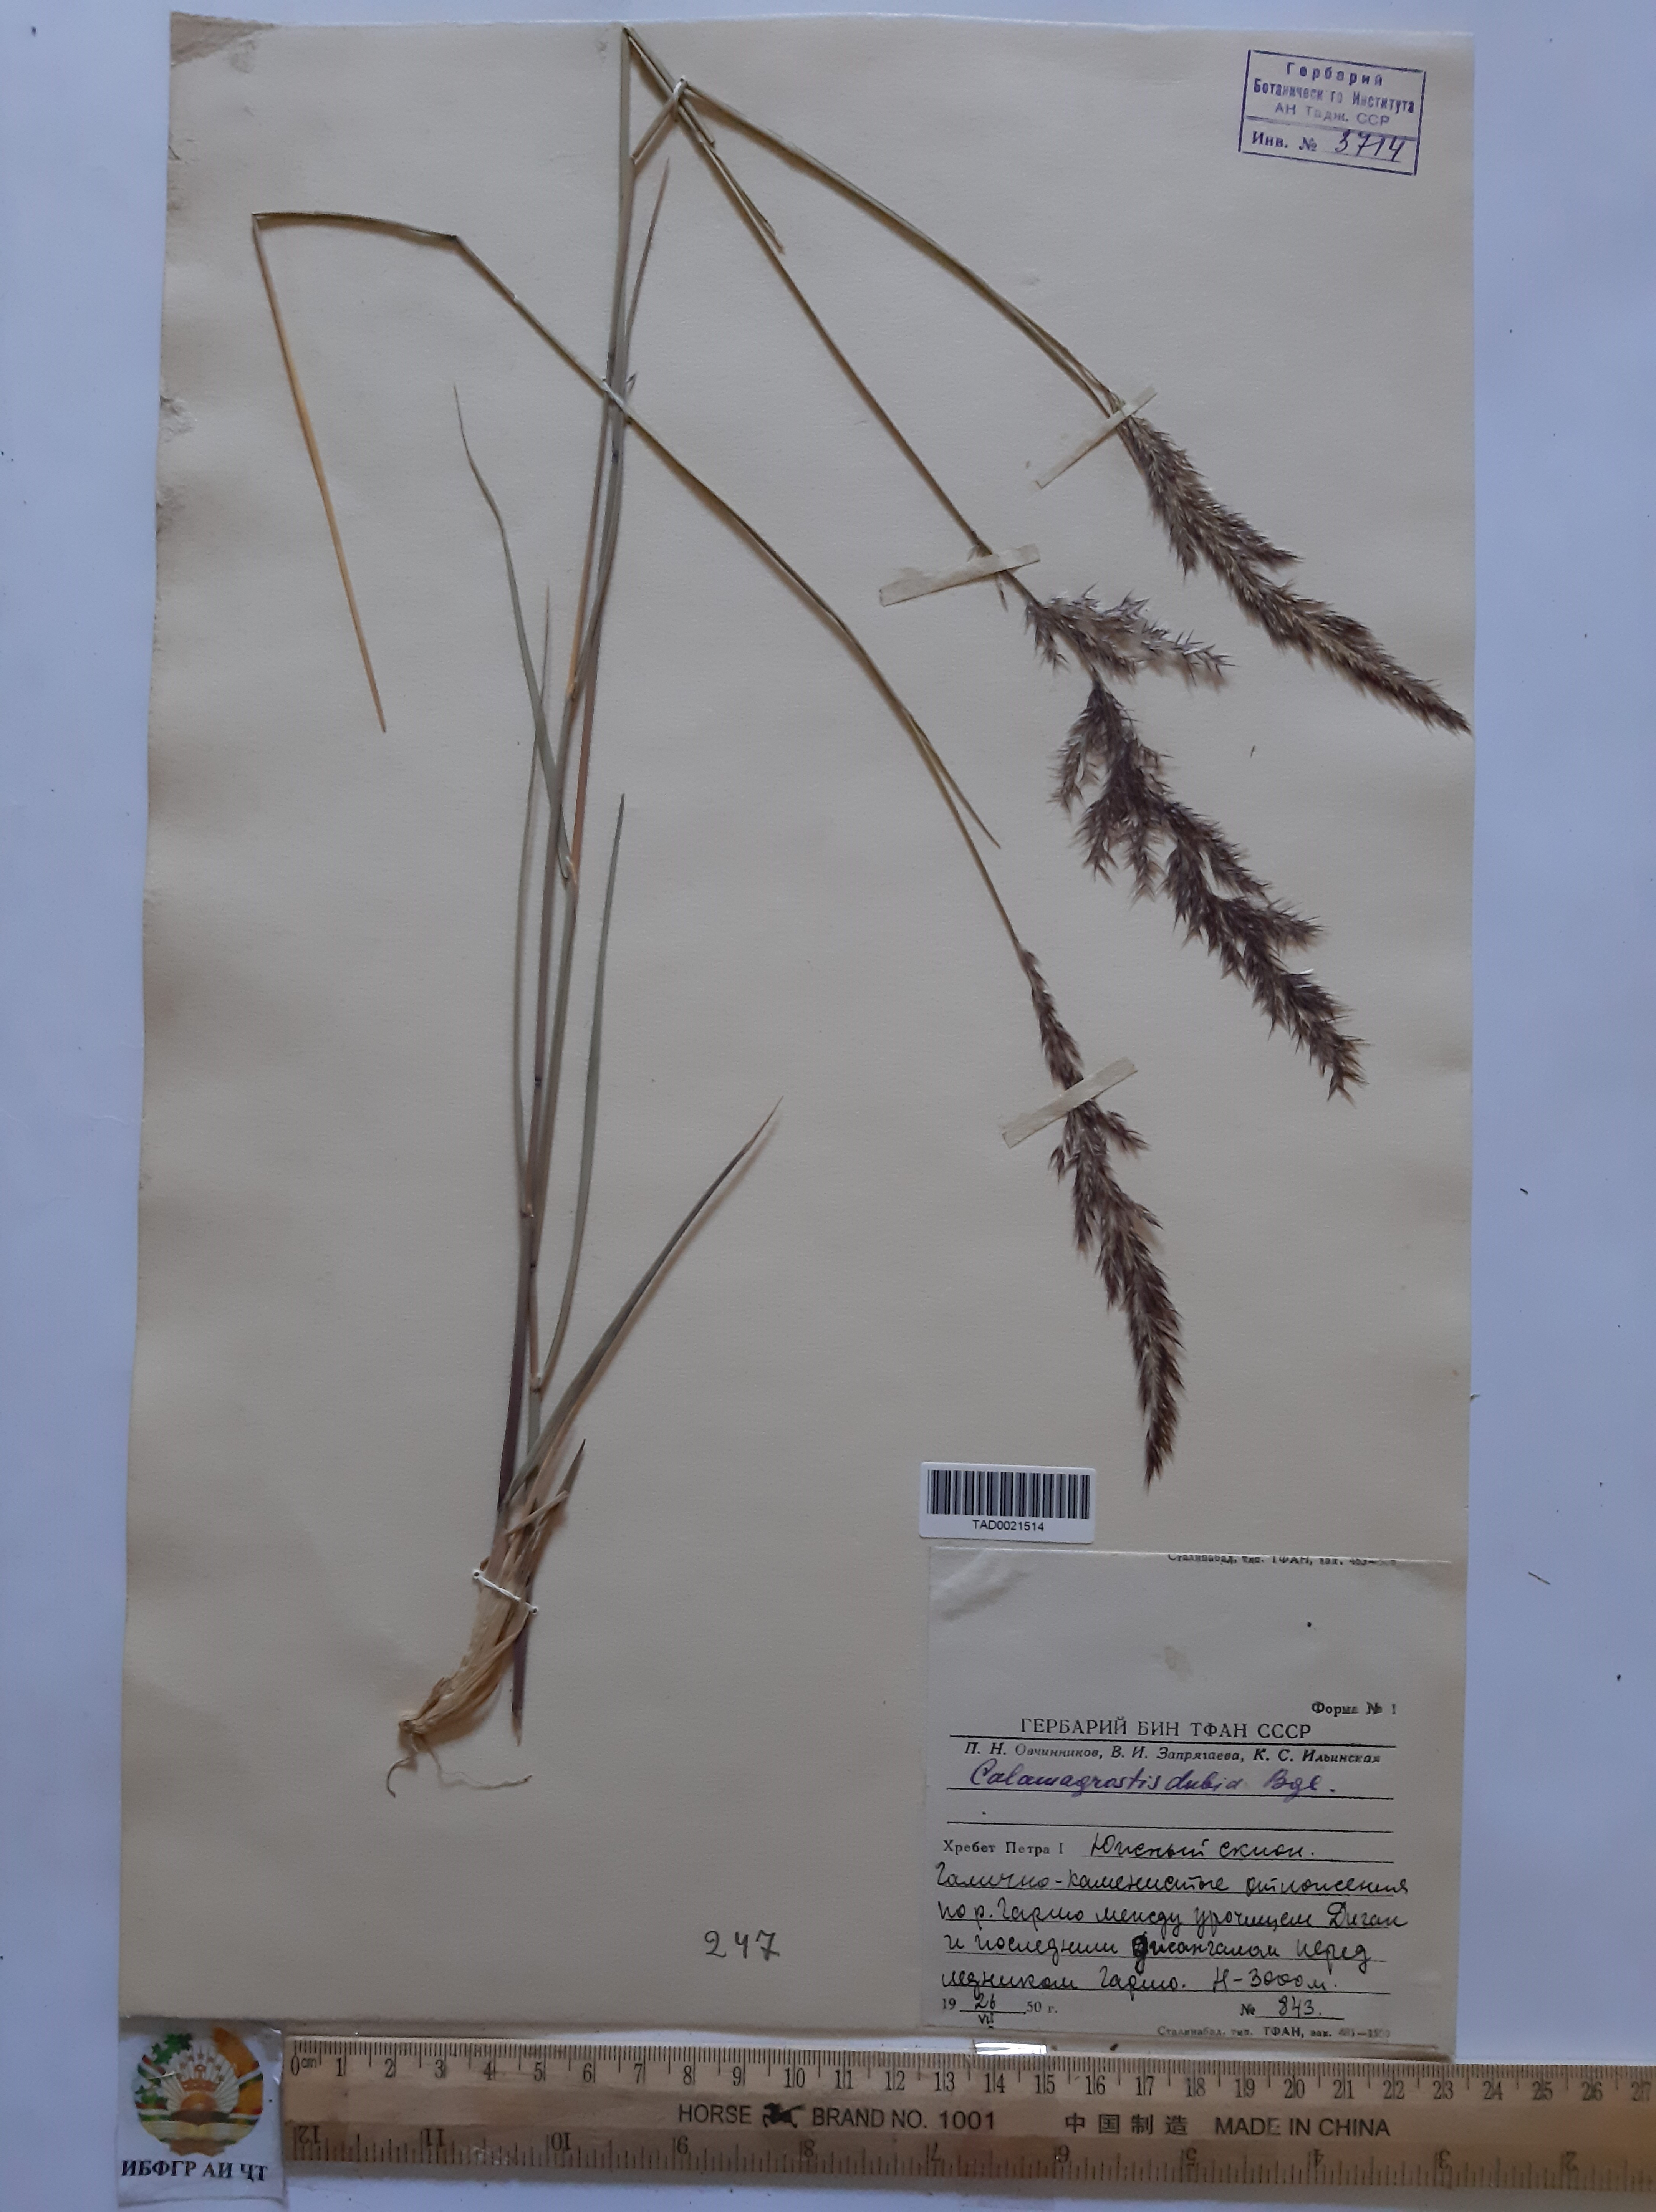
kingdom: Plantae
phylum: Tracheophyta
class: Liliopsida
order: Poales
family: Poaceae
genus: Calamagrostis
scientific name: Calamagrostis pseudophragmites
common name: Coastal small-reed
